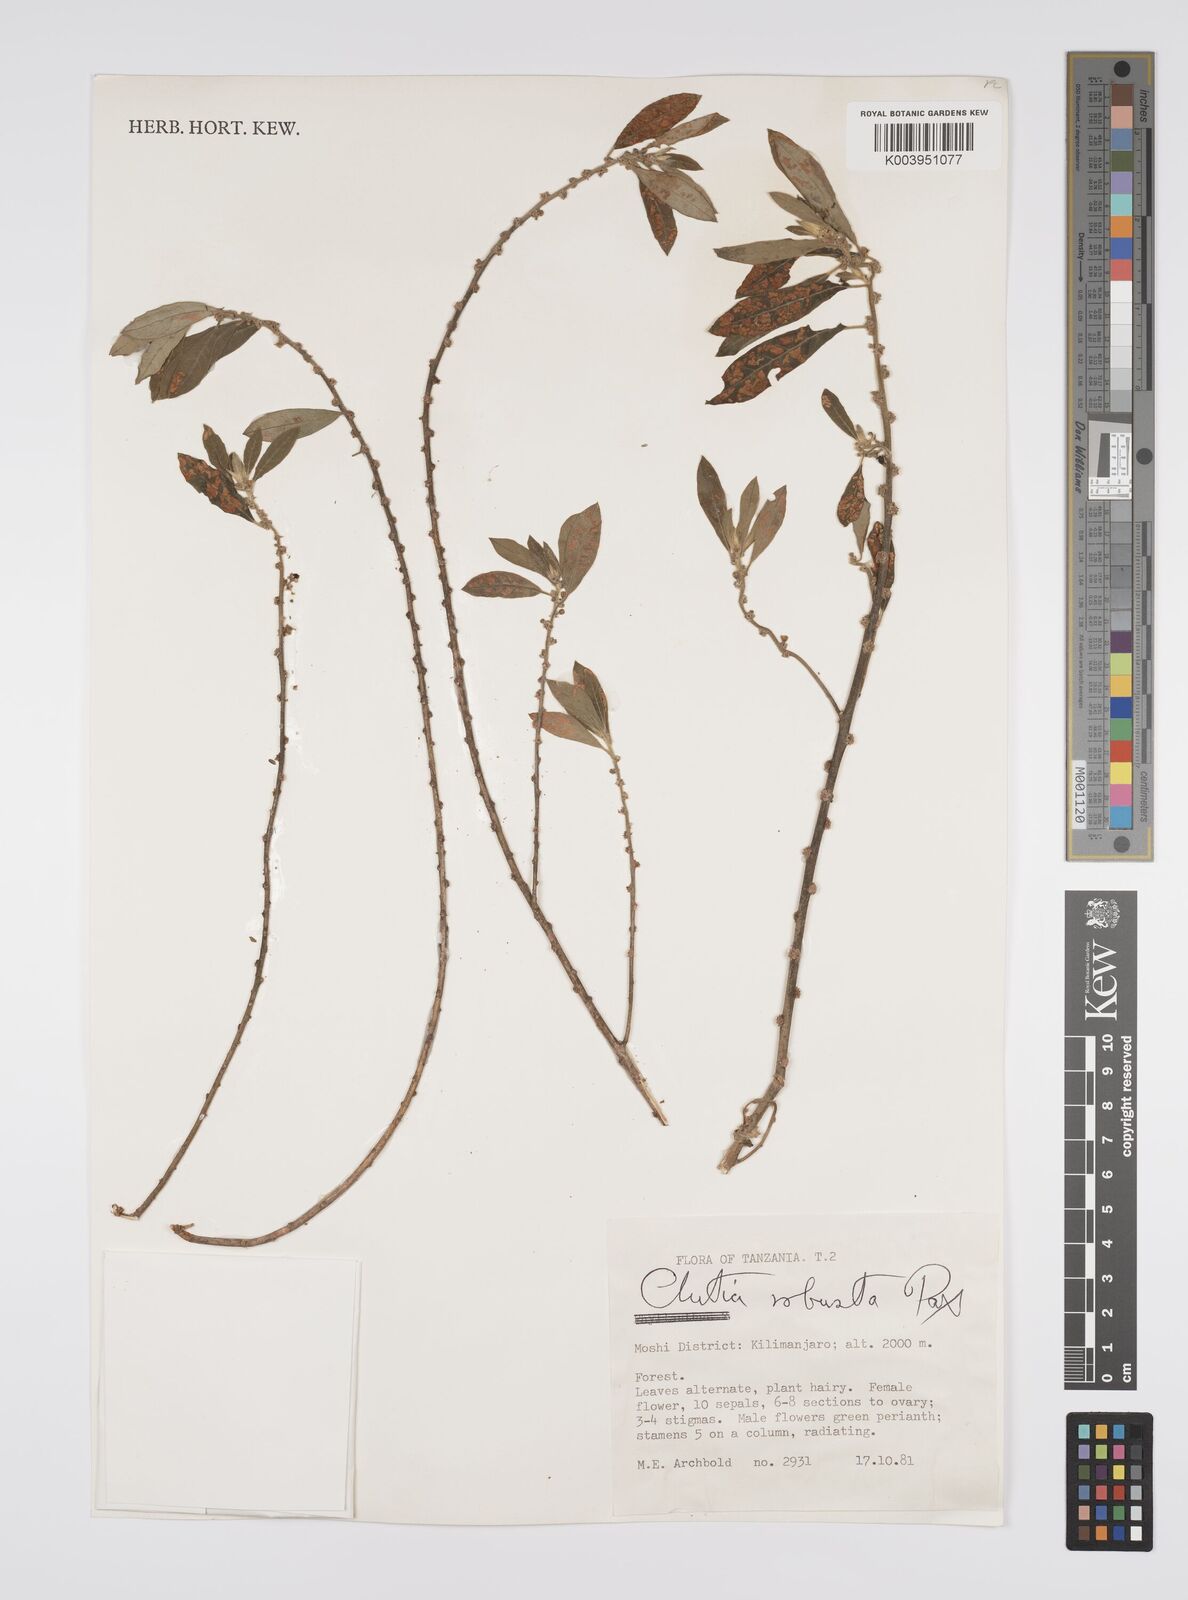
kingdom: Plantae
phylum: Tracheophyta
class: Magnoliopsida
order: Malpighiales
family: Peraceae
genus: Clutia
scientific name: Clutia kilimandscharica
